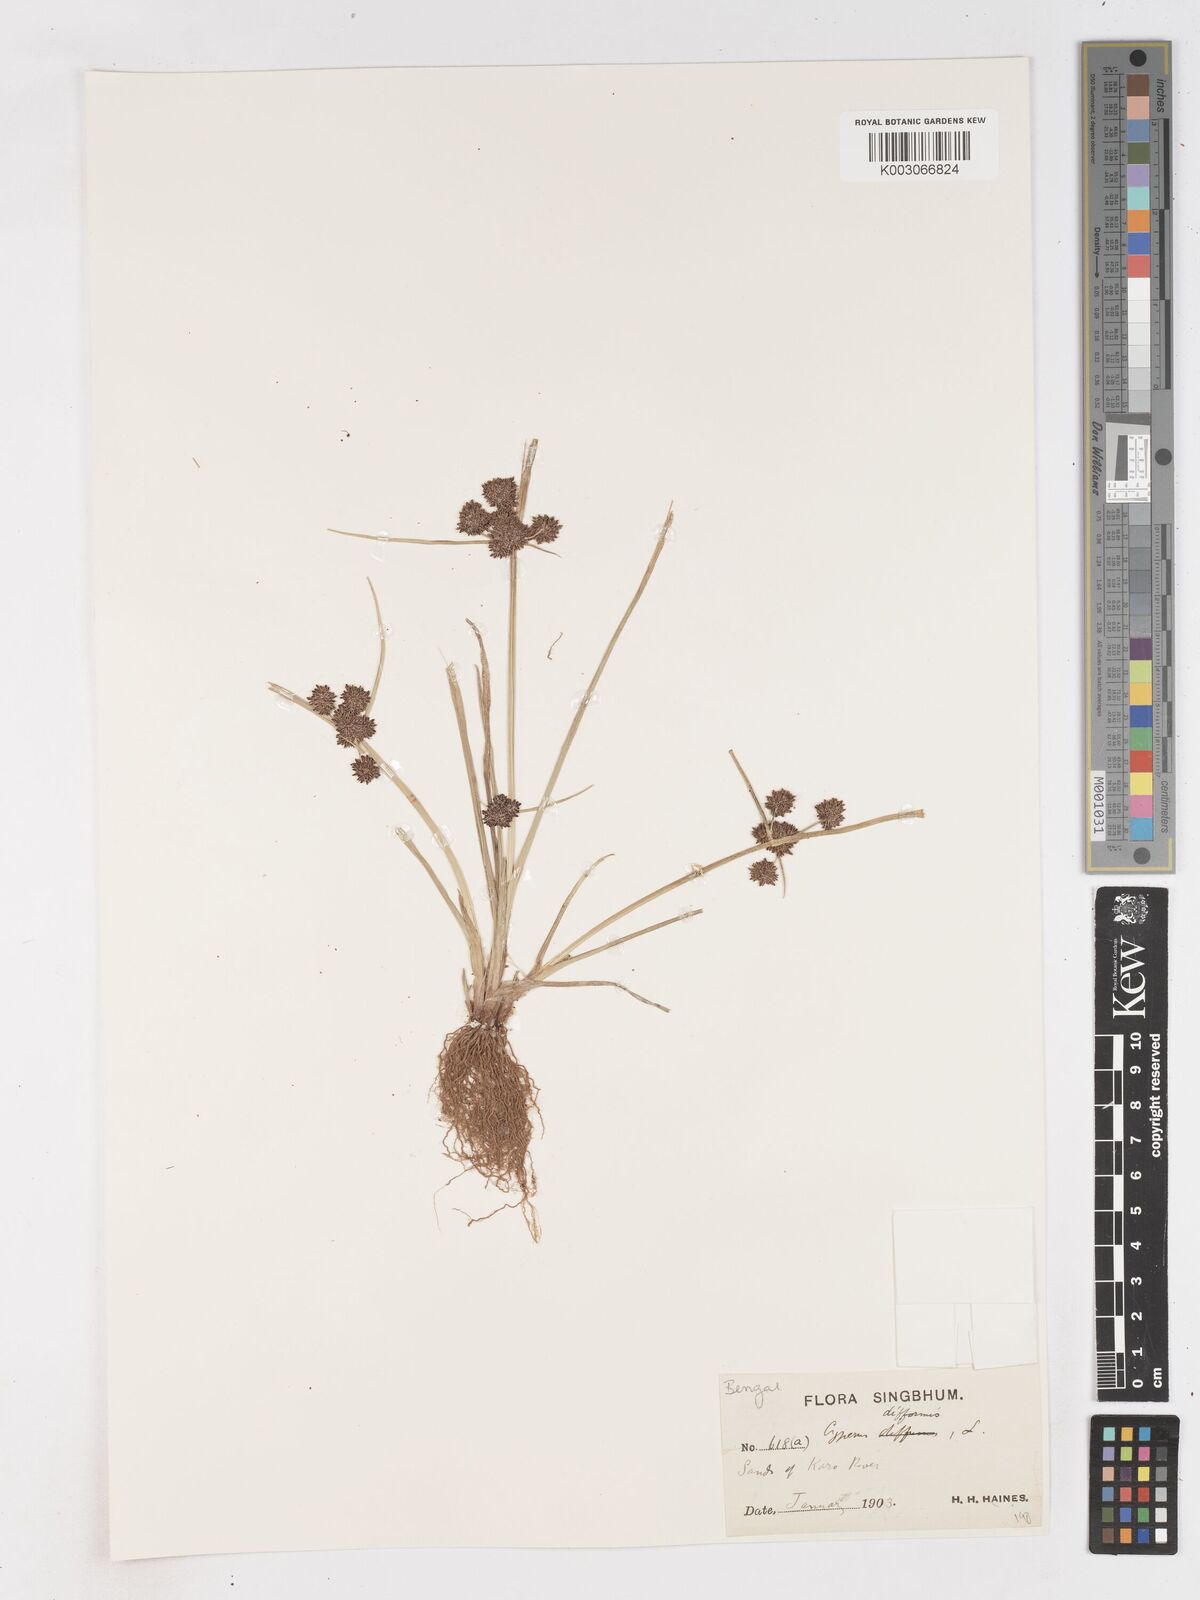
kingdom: Plantae
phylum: Tracheophyta
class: Liliopsida
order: Poales
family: Cyperaceae
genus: Cyperus
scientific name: Cyperus difformis
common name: Variable flatsedge
